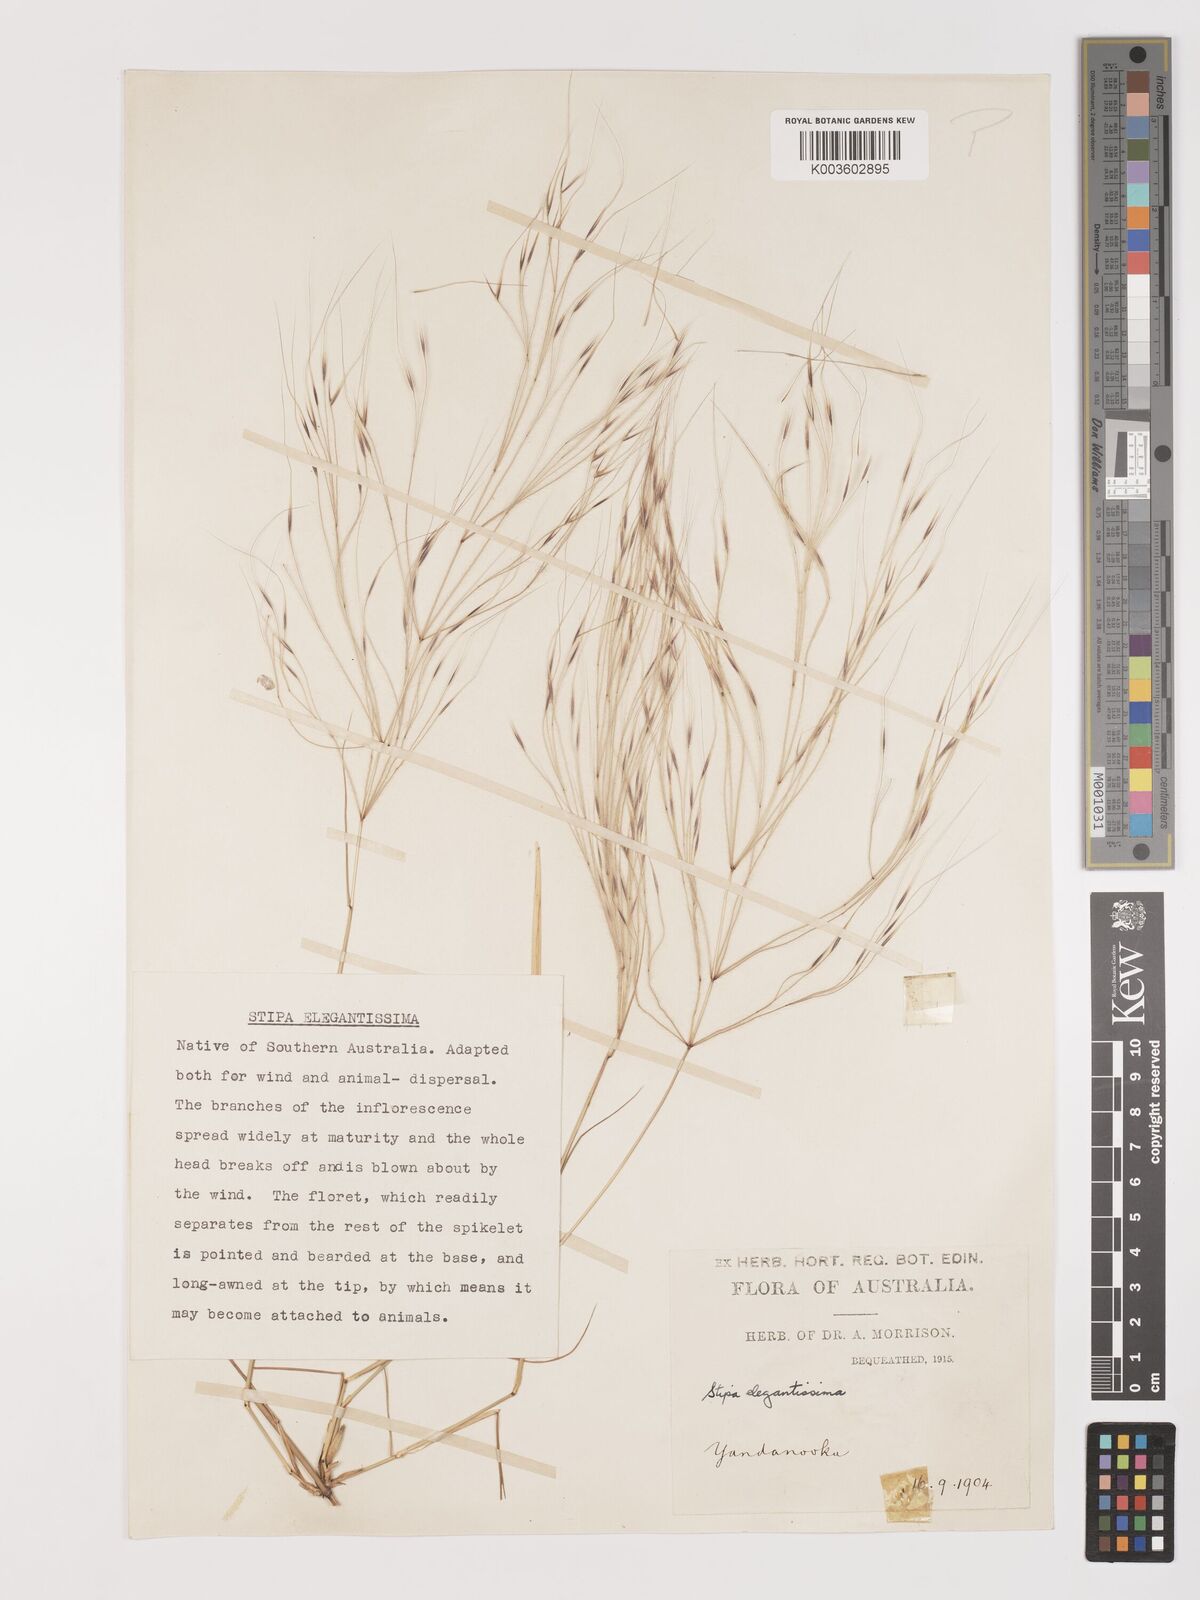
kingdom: Plantae
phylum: Tracheophyta
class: Liliopsida
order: Poales
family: Poaceae
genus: Austrostipa
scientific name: Austrostipa elegantissima
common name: Feather spear grass
